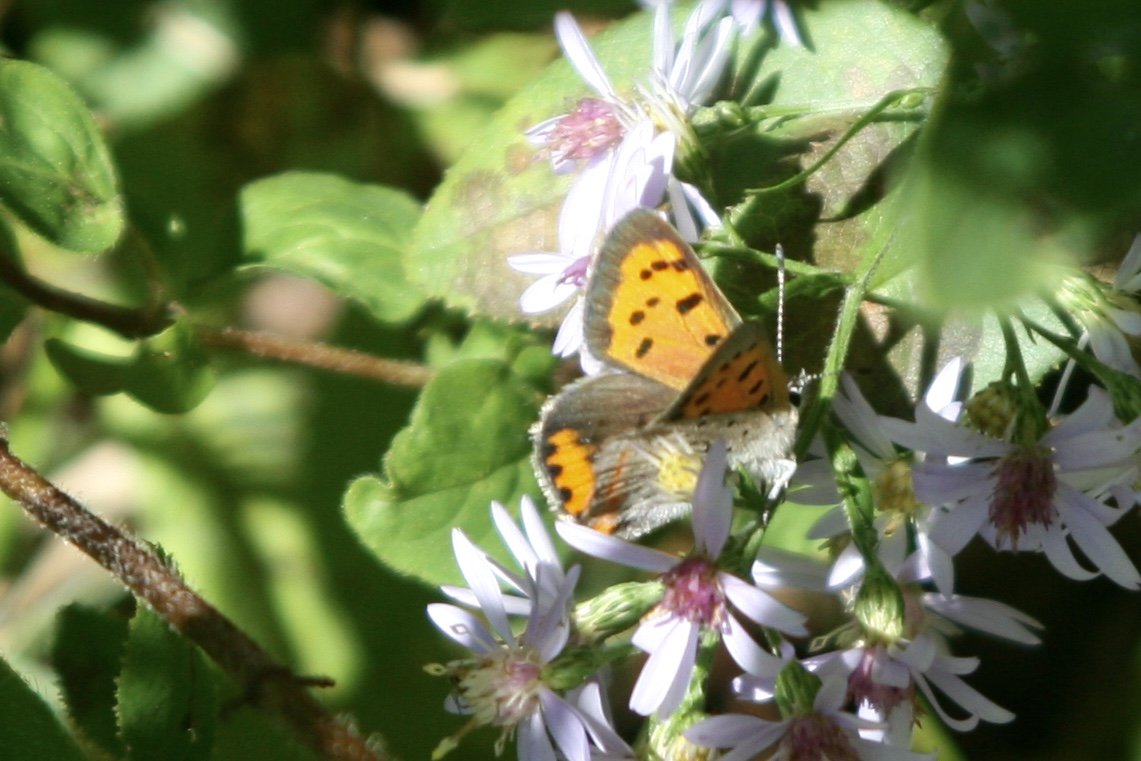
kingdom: Animalia
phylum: Arthropoda
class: Insecta
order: Lepidoptera
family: Lycaenidae
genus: Lycaena
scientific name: Lycaena phlaeas
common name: American Copper
